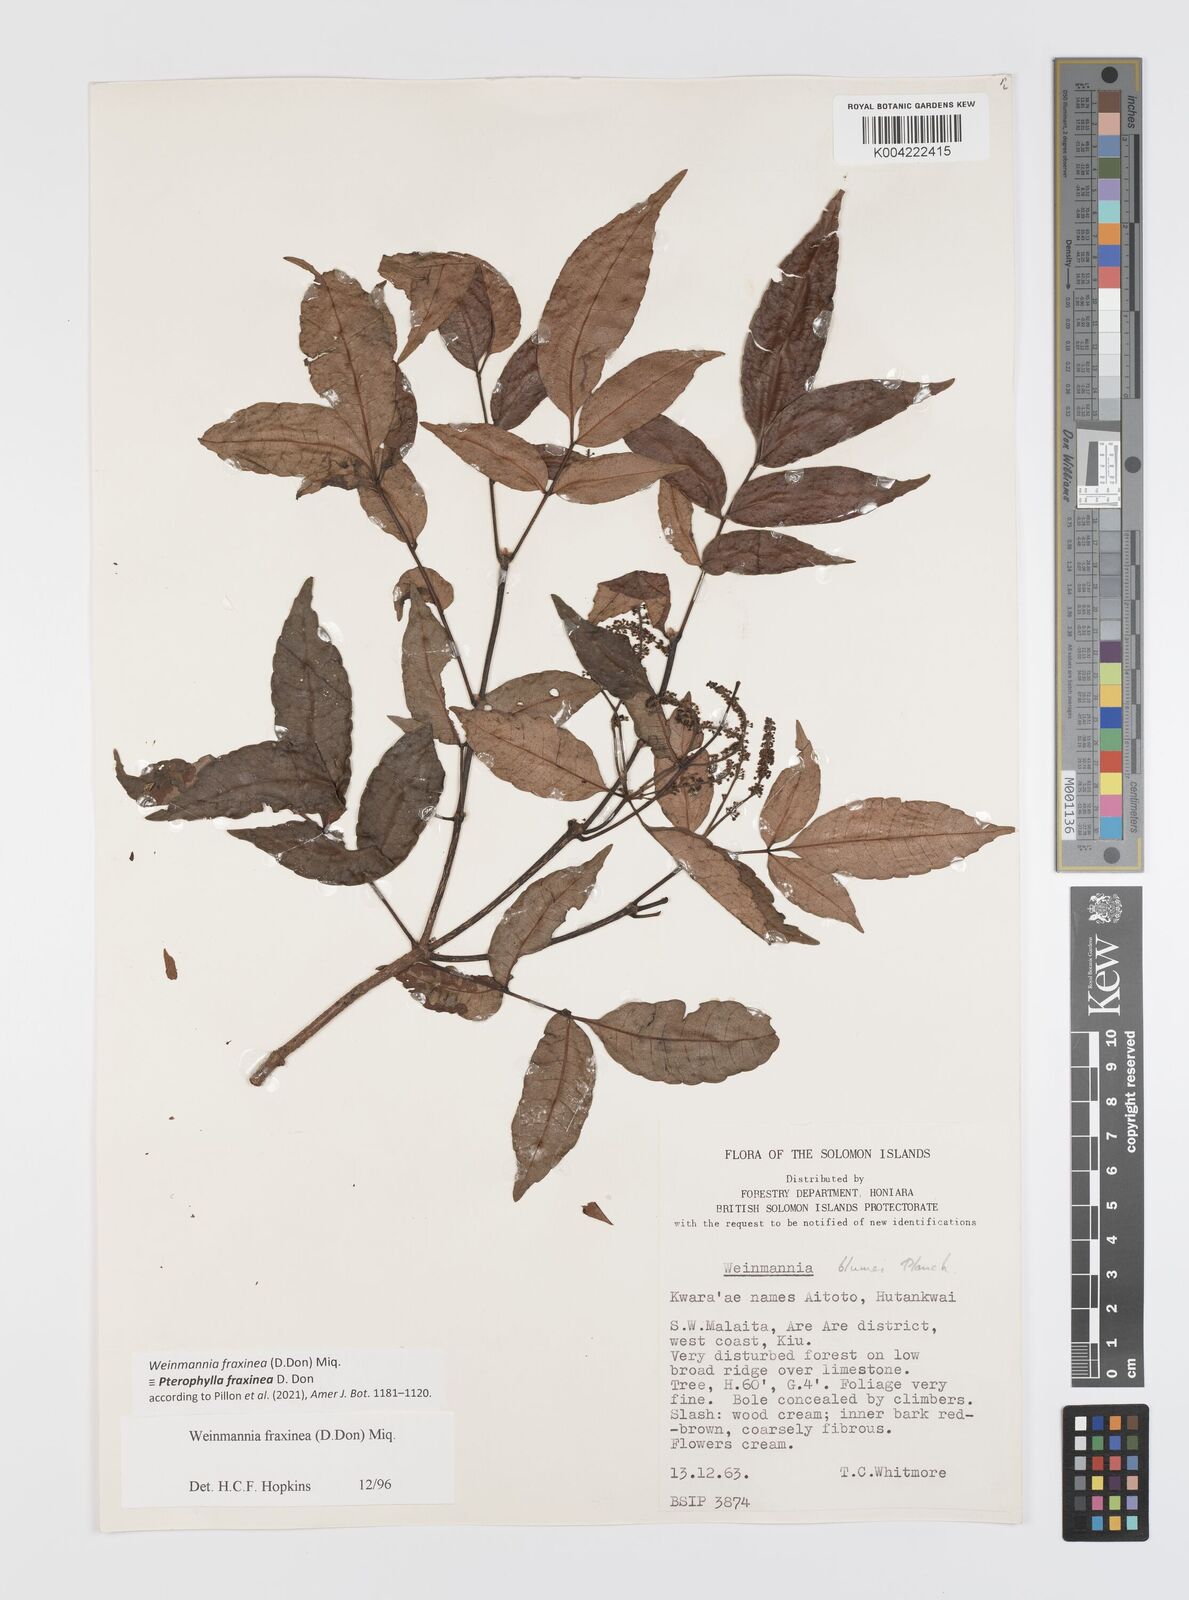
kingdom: Plantae
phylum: Tracheophyta
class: Magnoliopsida
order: Oxalidales
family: Cunoniaceae
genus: Pterophylla
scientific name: Pterophylla fraxinea
